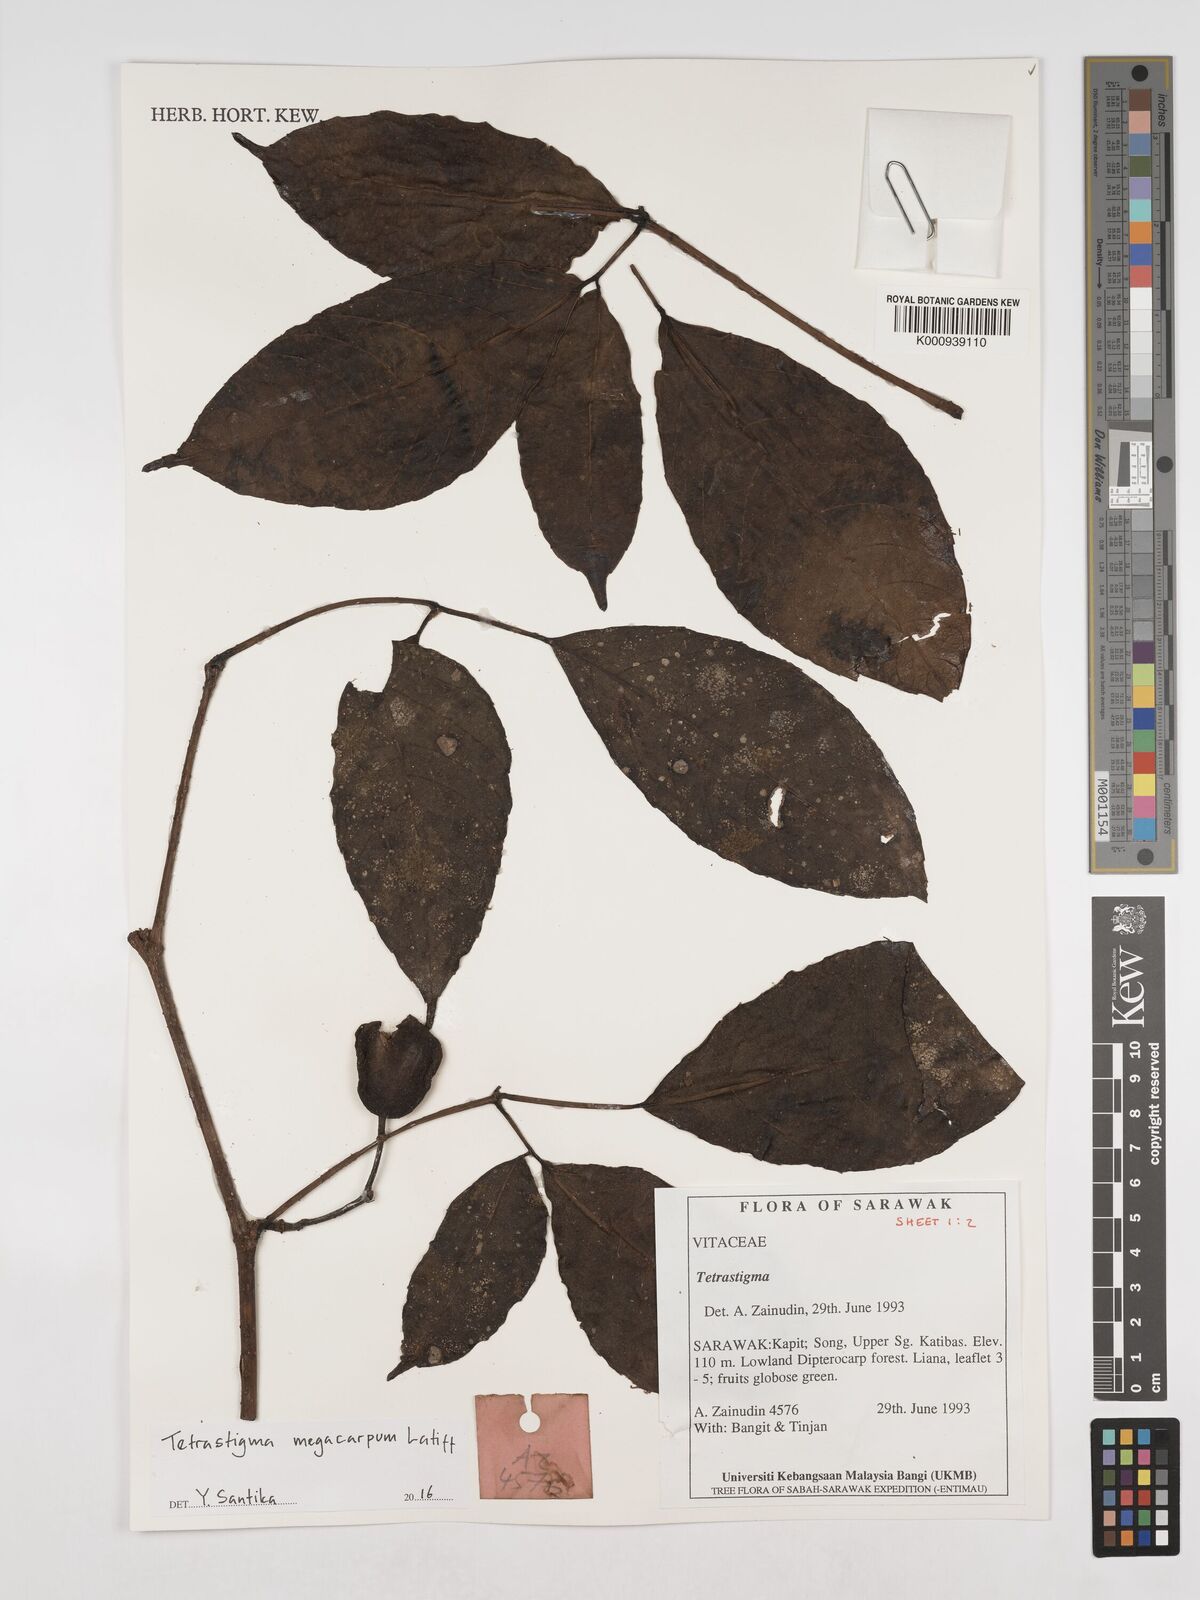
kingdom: Plantae
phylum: Tracheophyta
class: Magnoliopsida
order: Vitales
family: Vitaceae
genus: Tetrastigma
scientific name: Tetrastigma megacarpum
